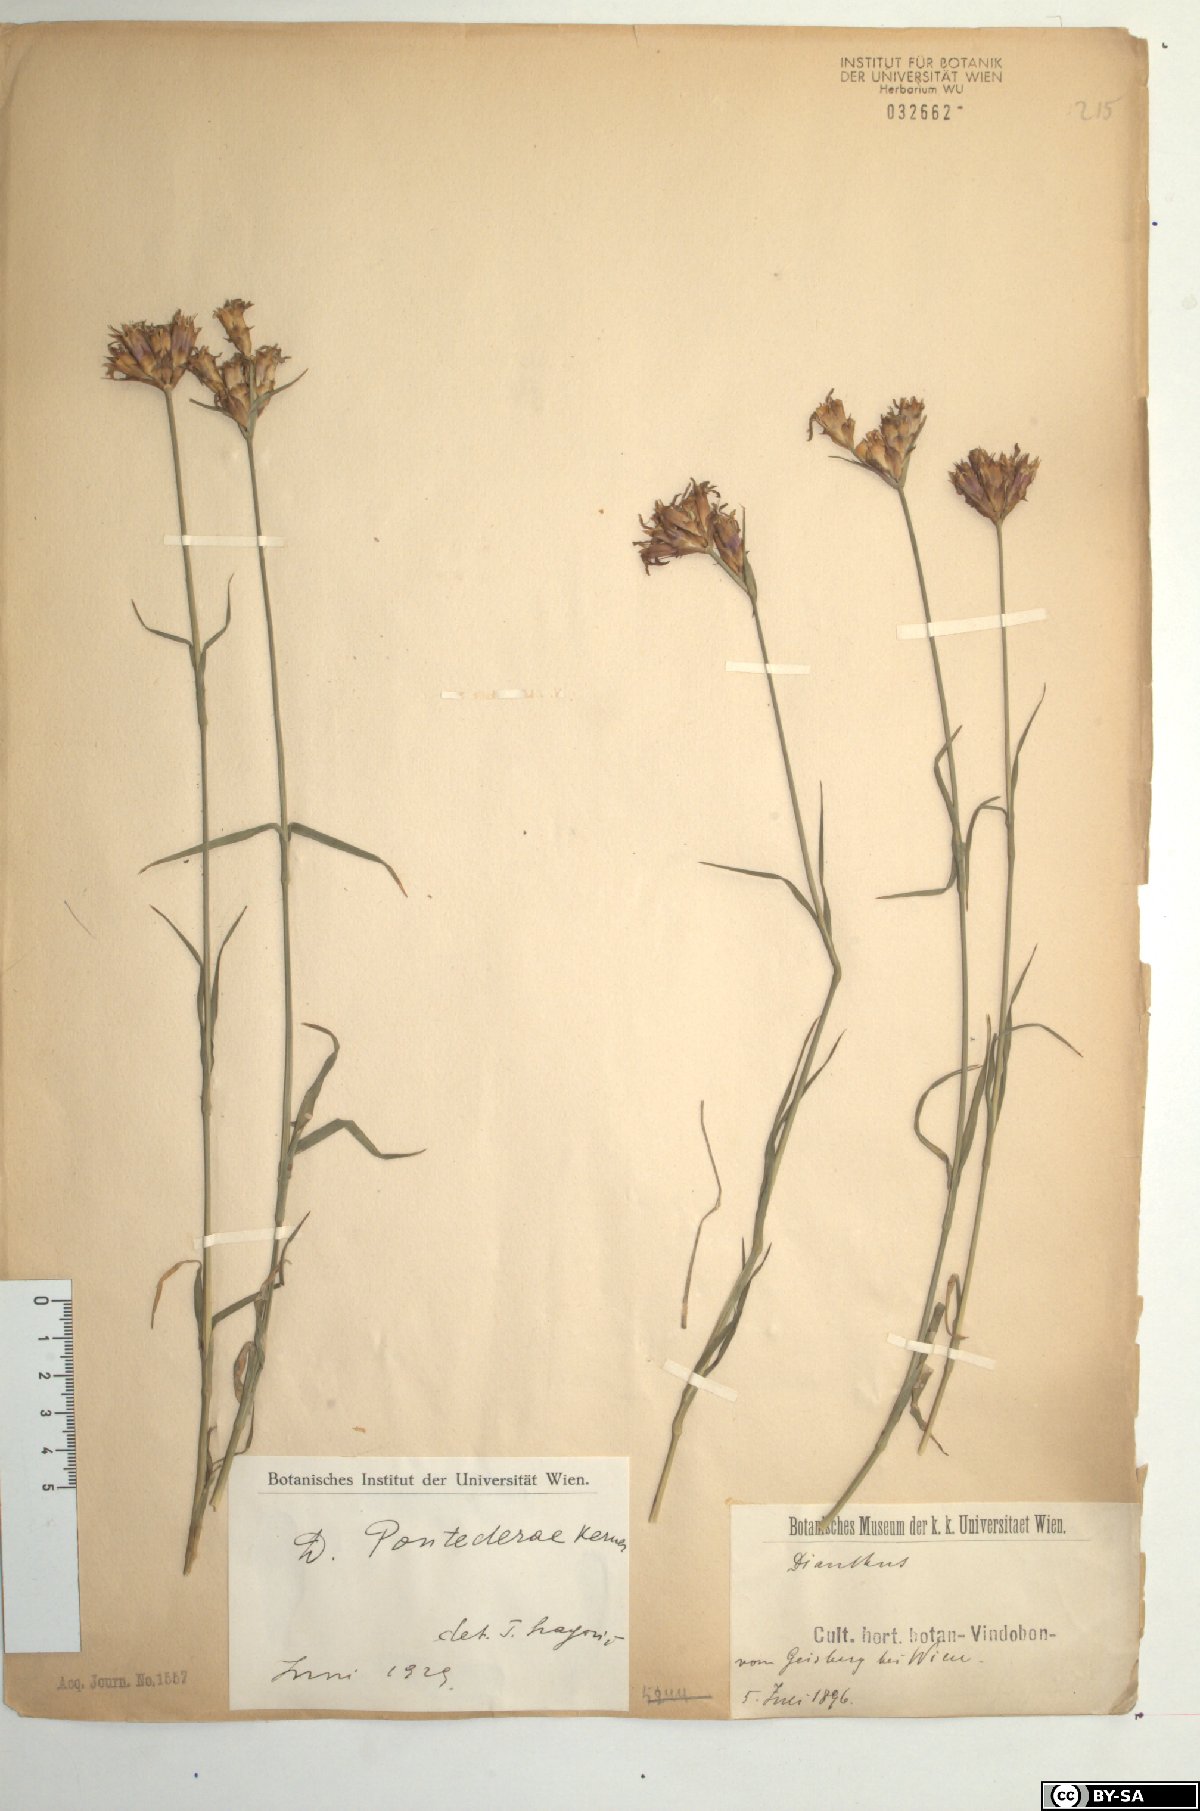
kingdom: Plantae
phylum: Tracheophyta
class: Magnoliopsida
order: Caryophyllales
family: Caryophyllaceae
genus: Dianthus
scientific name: Dianthus pontederae
